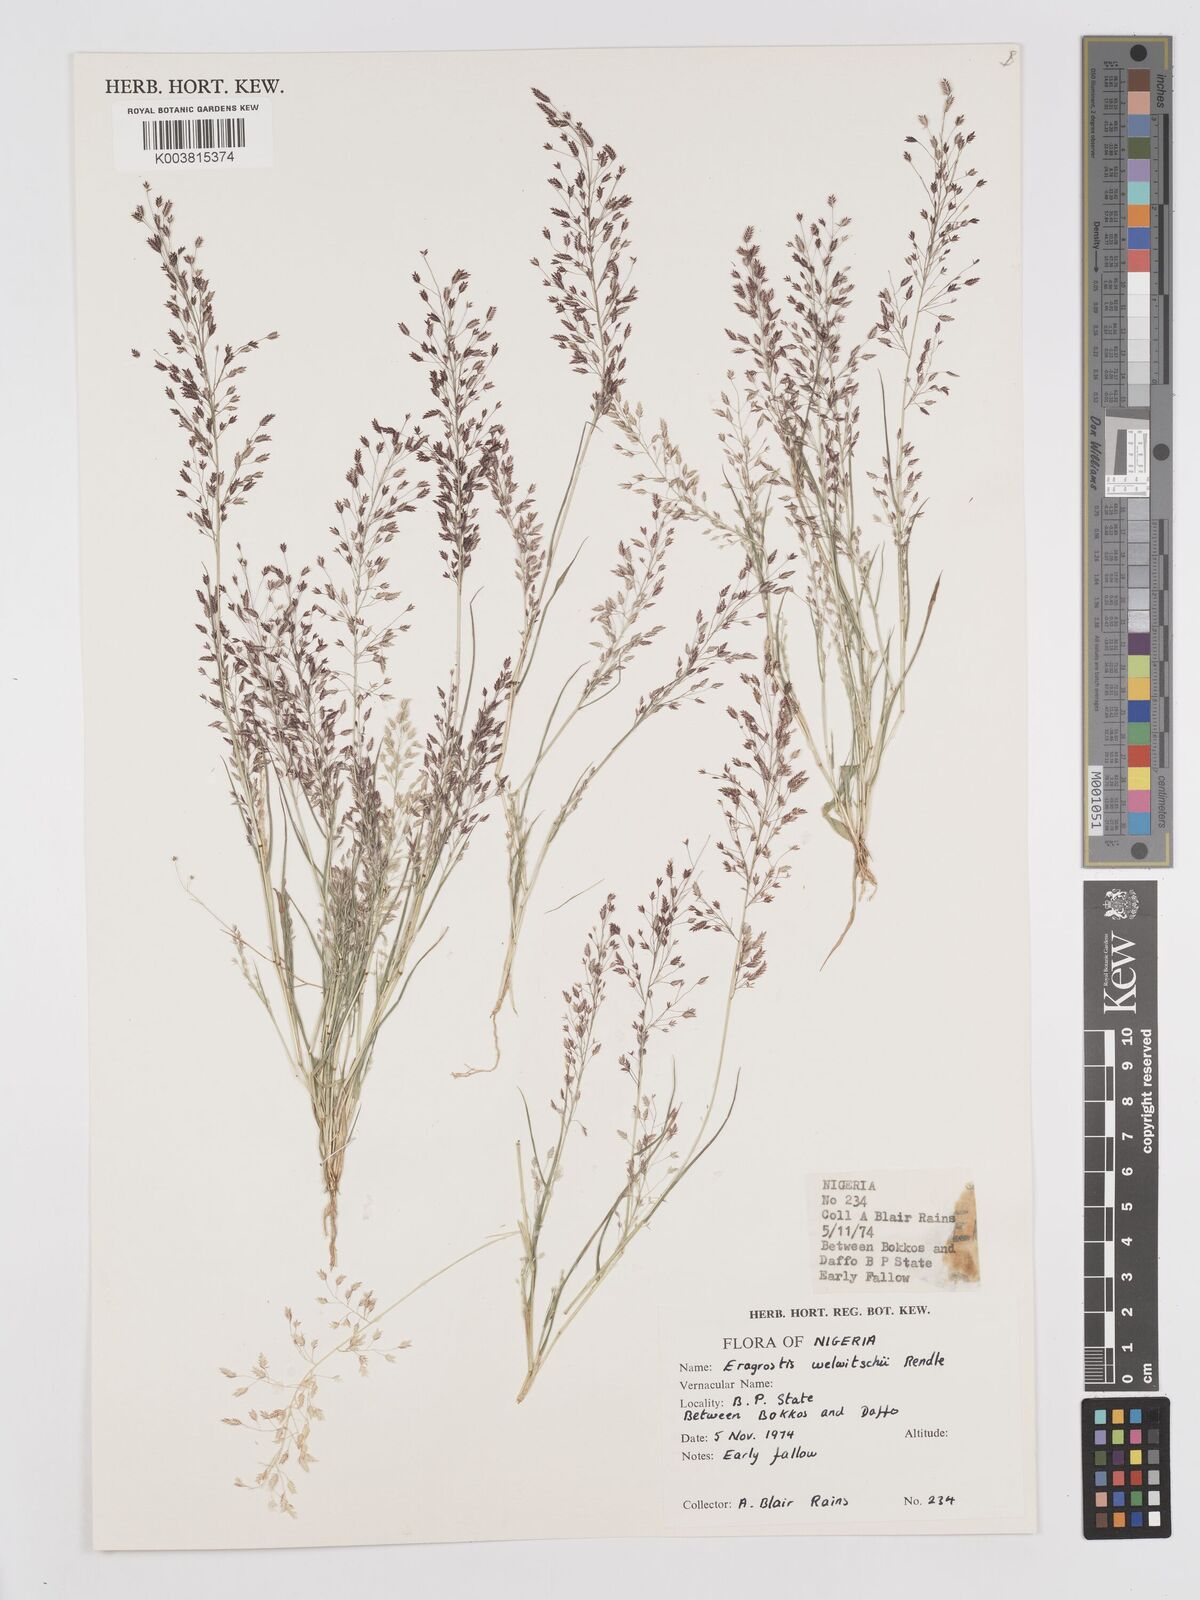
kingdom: Plantae
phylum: Tracheophyta
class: Liliopsida
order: Poales
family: Poaceae
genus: Eragrostis
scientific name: Eragrostis welwitschii
